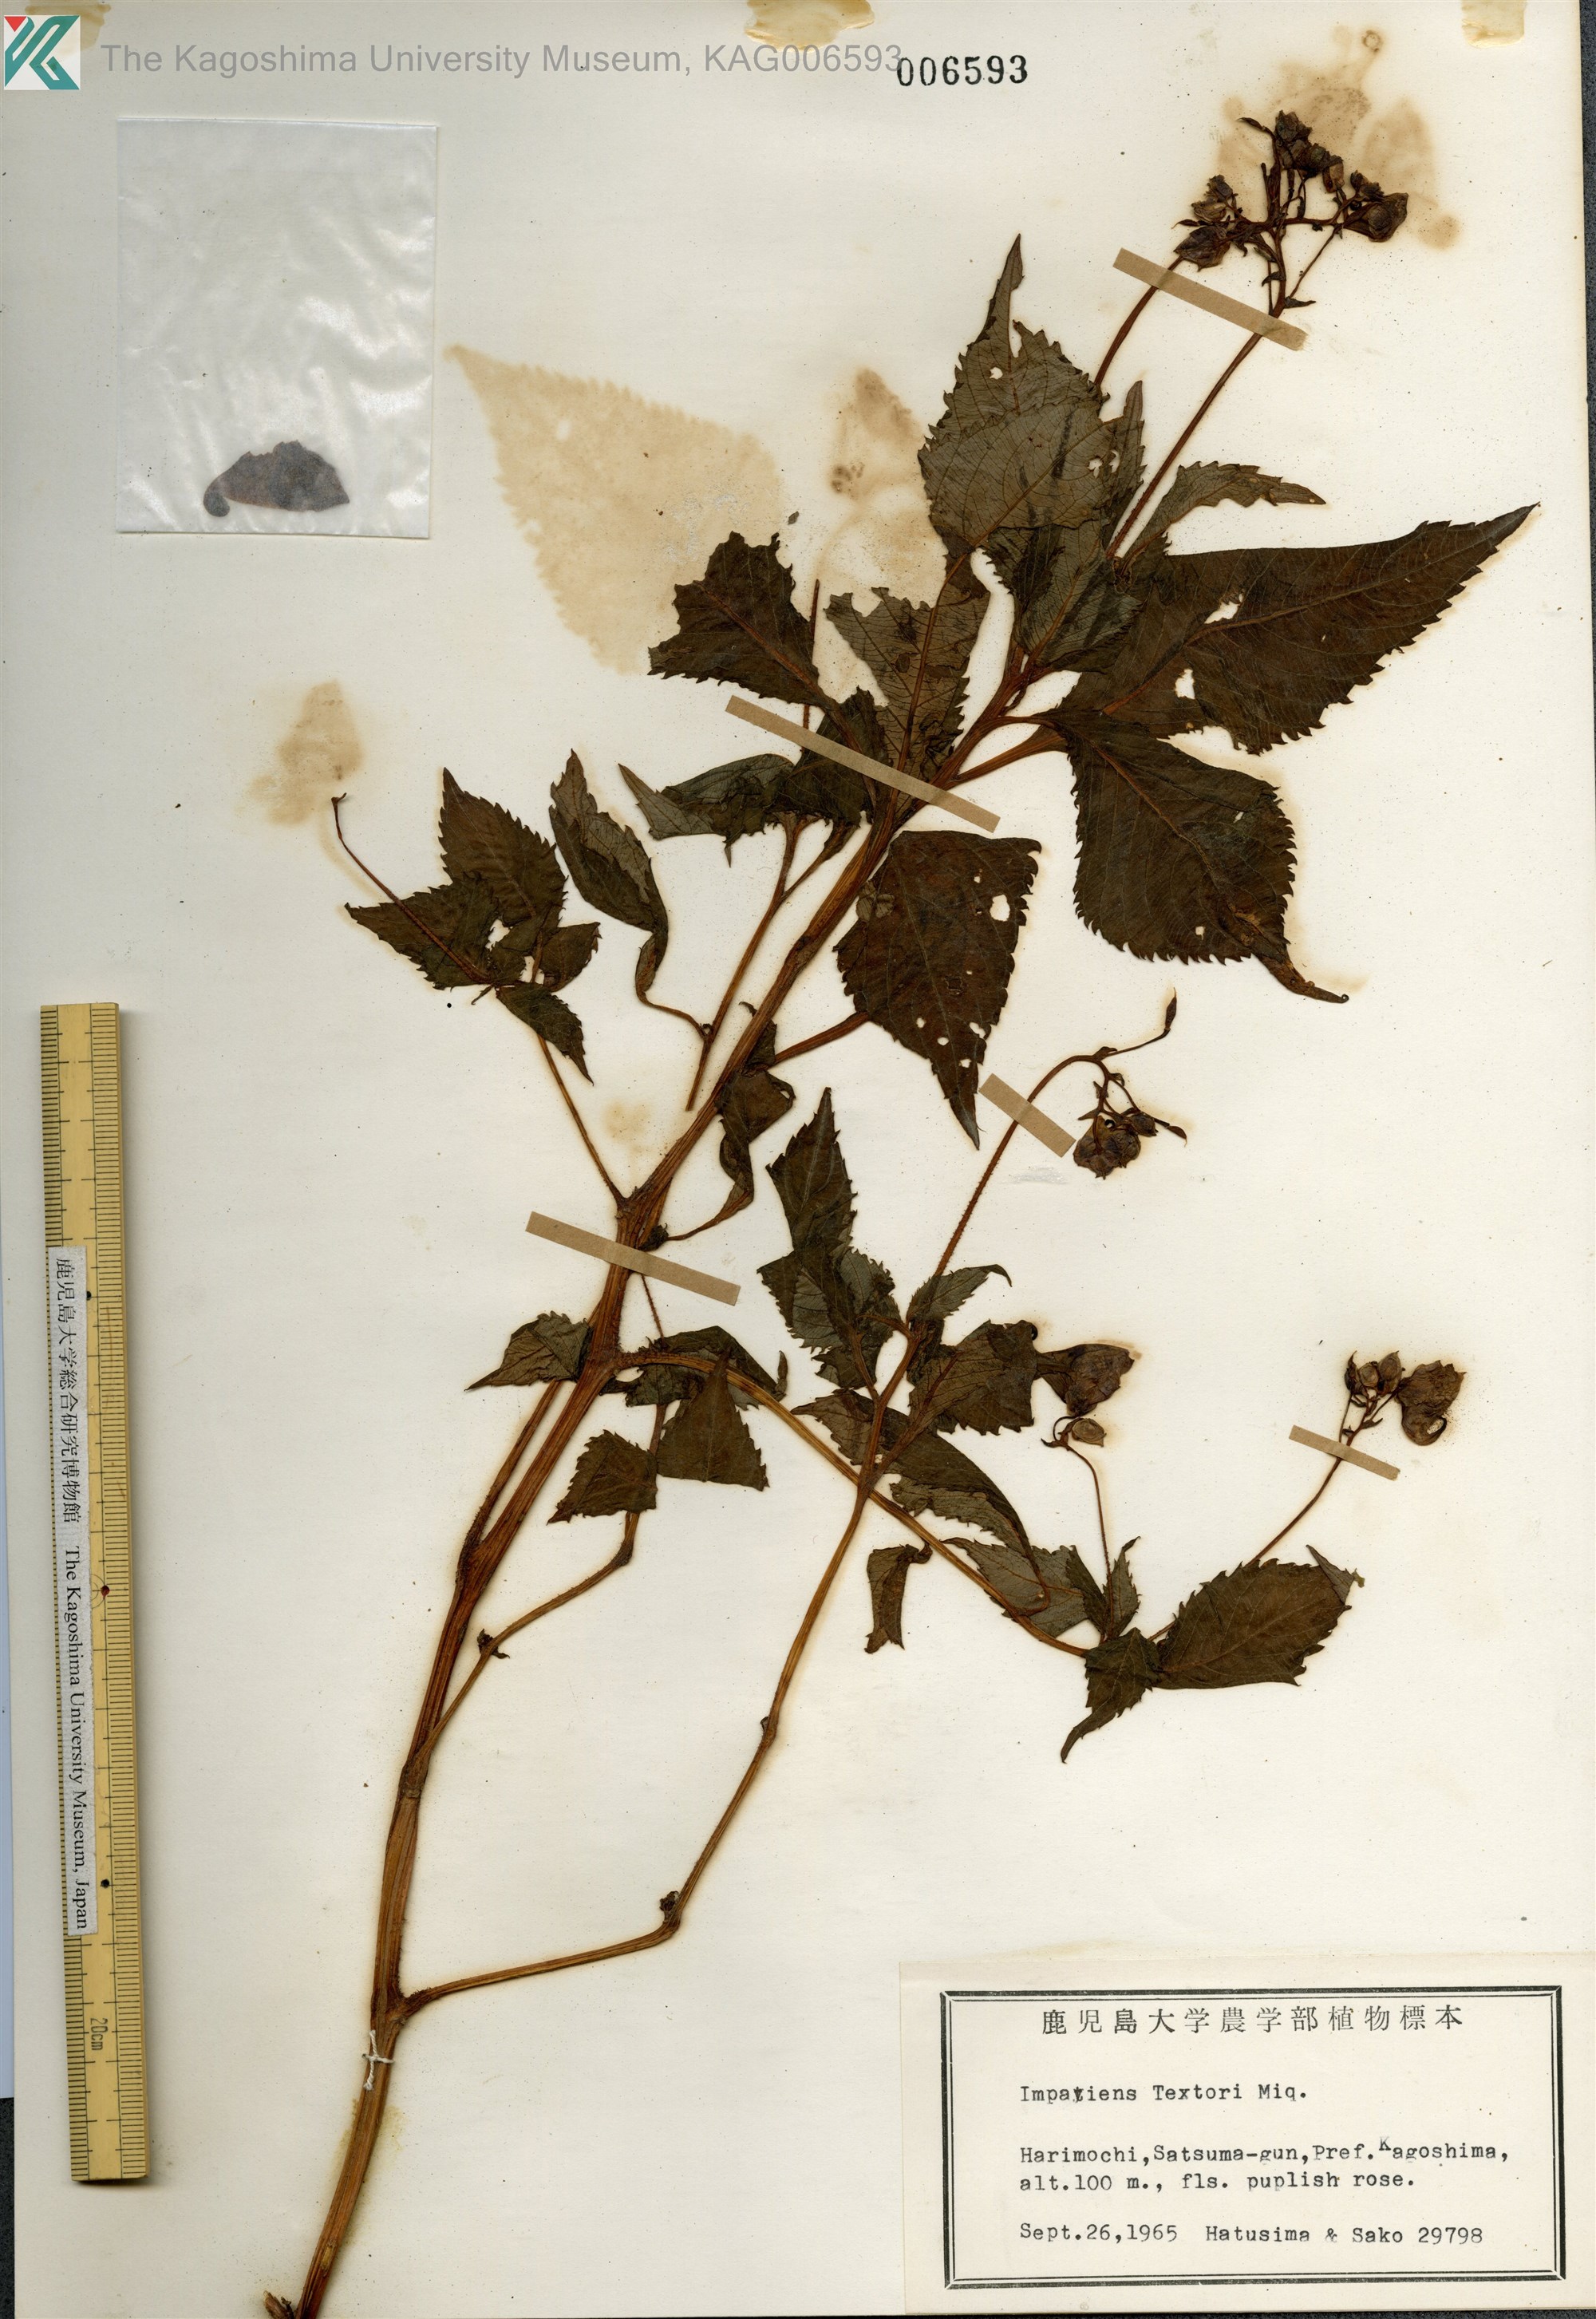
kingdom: Plantae
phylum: Tracheophyta
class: Magnoliopsida
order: Ericales
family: Balsaminaceae
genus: Impatiens
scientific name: Impatiens textorii
